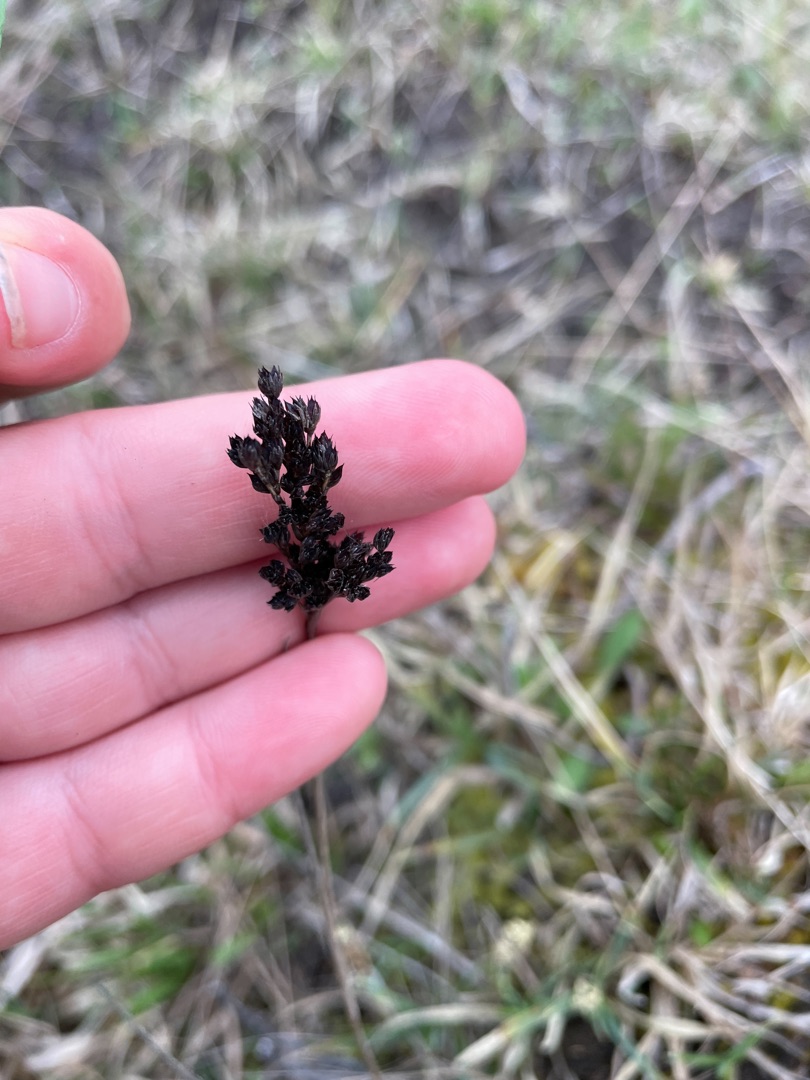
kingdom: Plantae
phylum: Tracheophyta
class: Liliopsida
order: Poales
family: Juncaceae
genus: Juncus
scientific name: Juncus anceps
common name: Sand-siv
